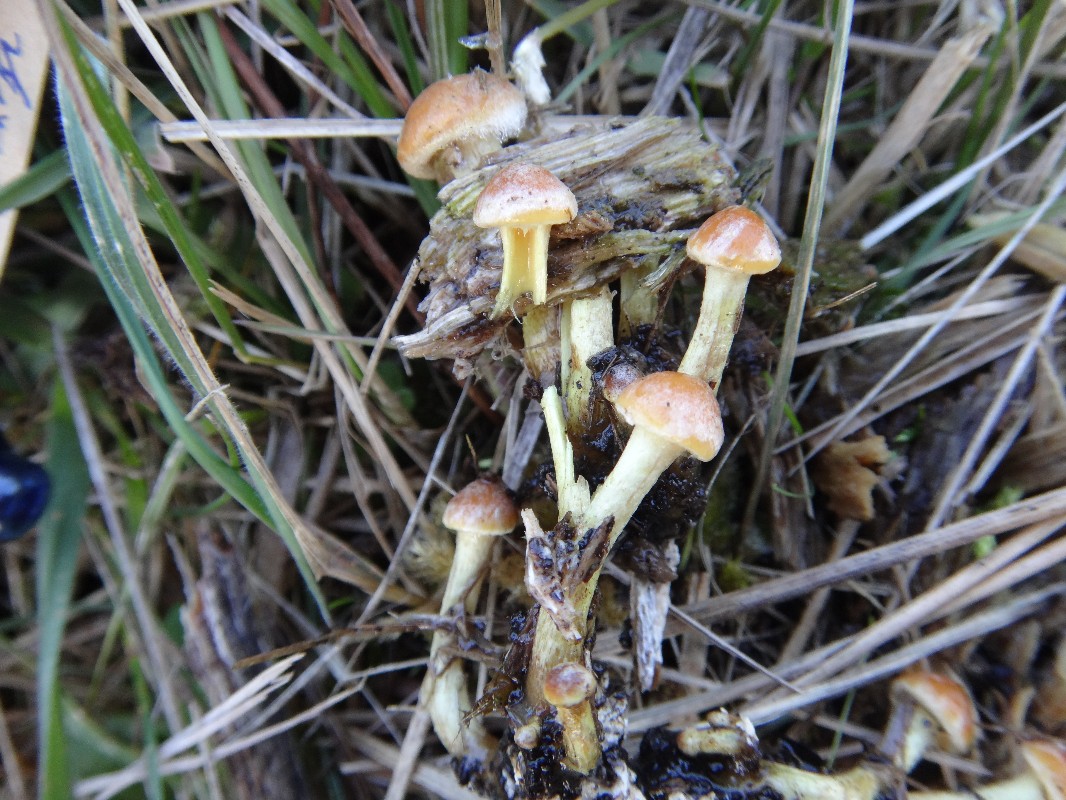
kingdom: Fungi
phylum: Basidiomycota
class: Agaricomycetes
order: Agaricales
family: Strophariaceae
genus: Hypholoma
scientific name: Hypholoma fasciculare
